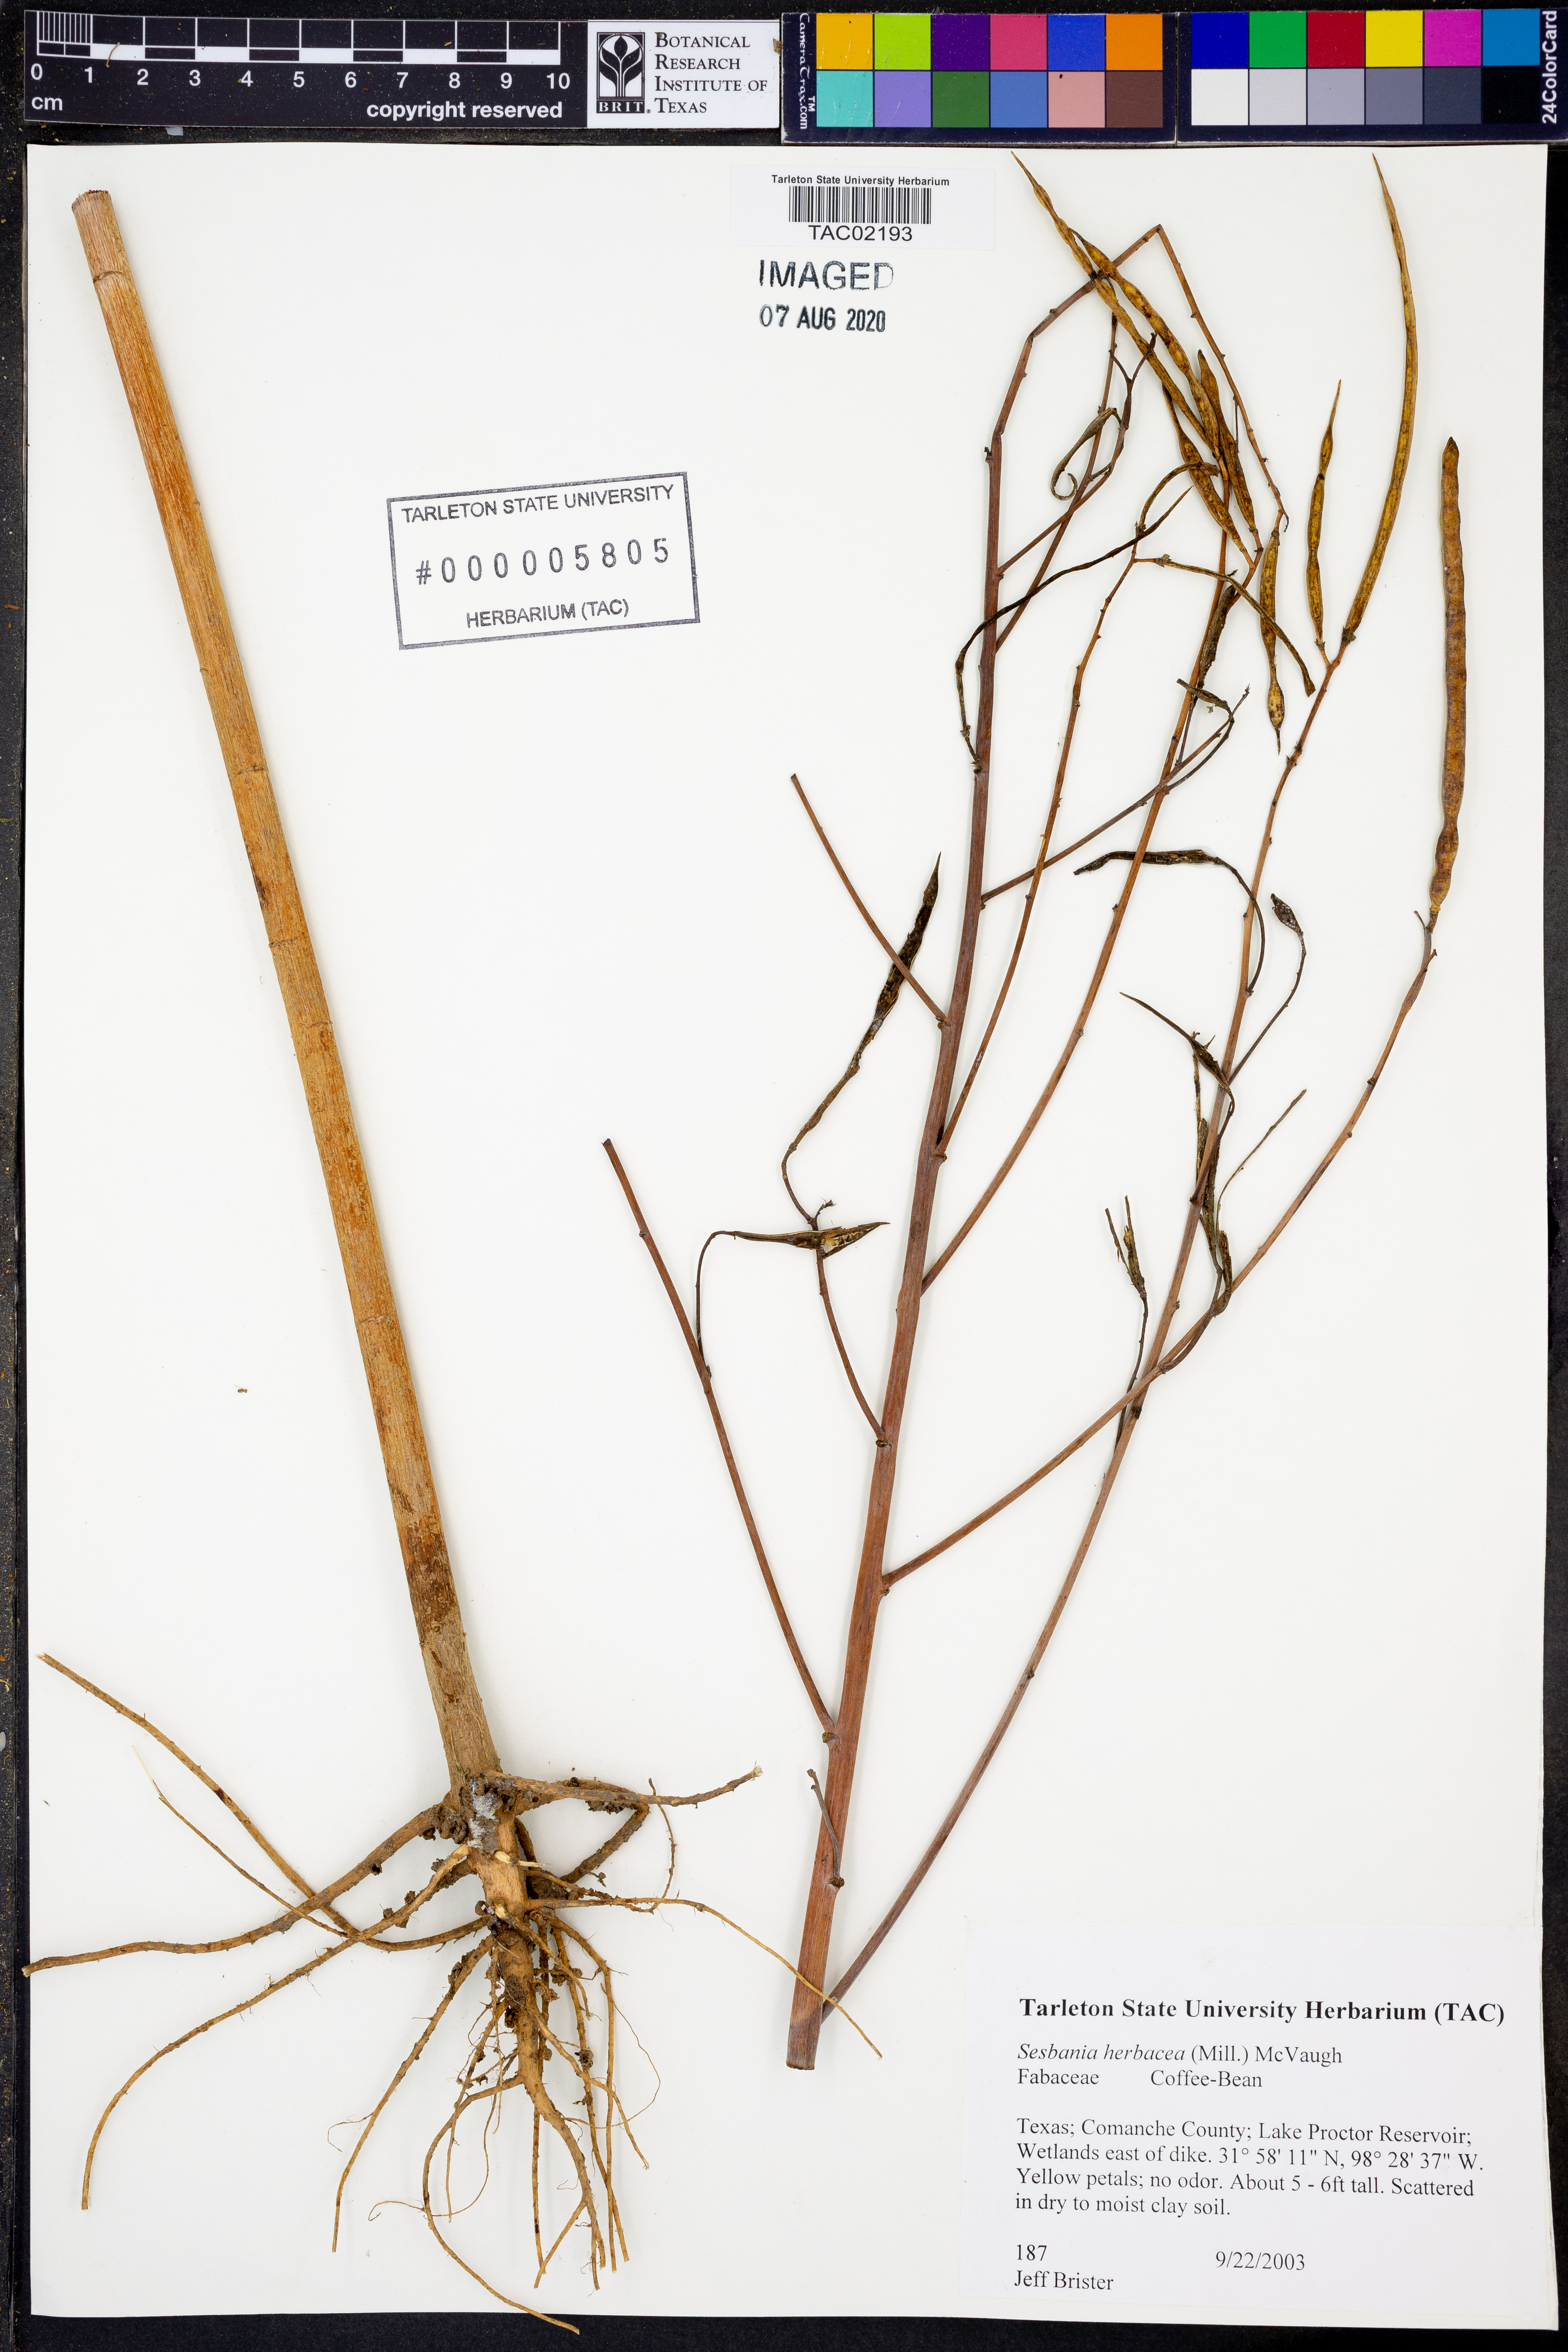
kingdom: Plantae
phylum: Tracheophyta
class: Magnoliopsida
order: Fabales
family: Fabaceae
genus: Sesbania
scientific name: Sesbania herbacea
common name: Bigpod sesbania
